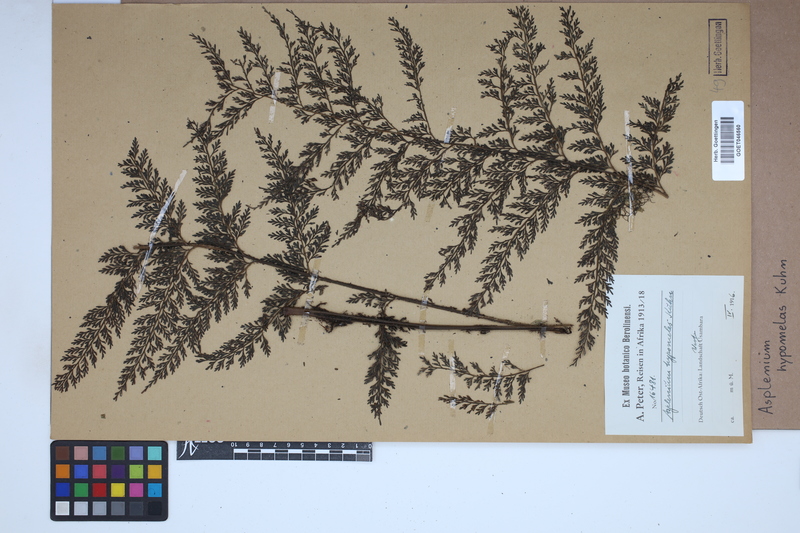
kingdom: Plantae
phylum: Tracheophyta
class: Polypodiopsida
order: Polypodiales
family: Aspleniaceae
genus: Asplenium
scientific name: Asplenium hypomelas
